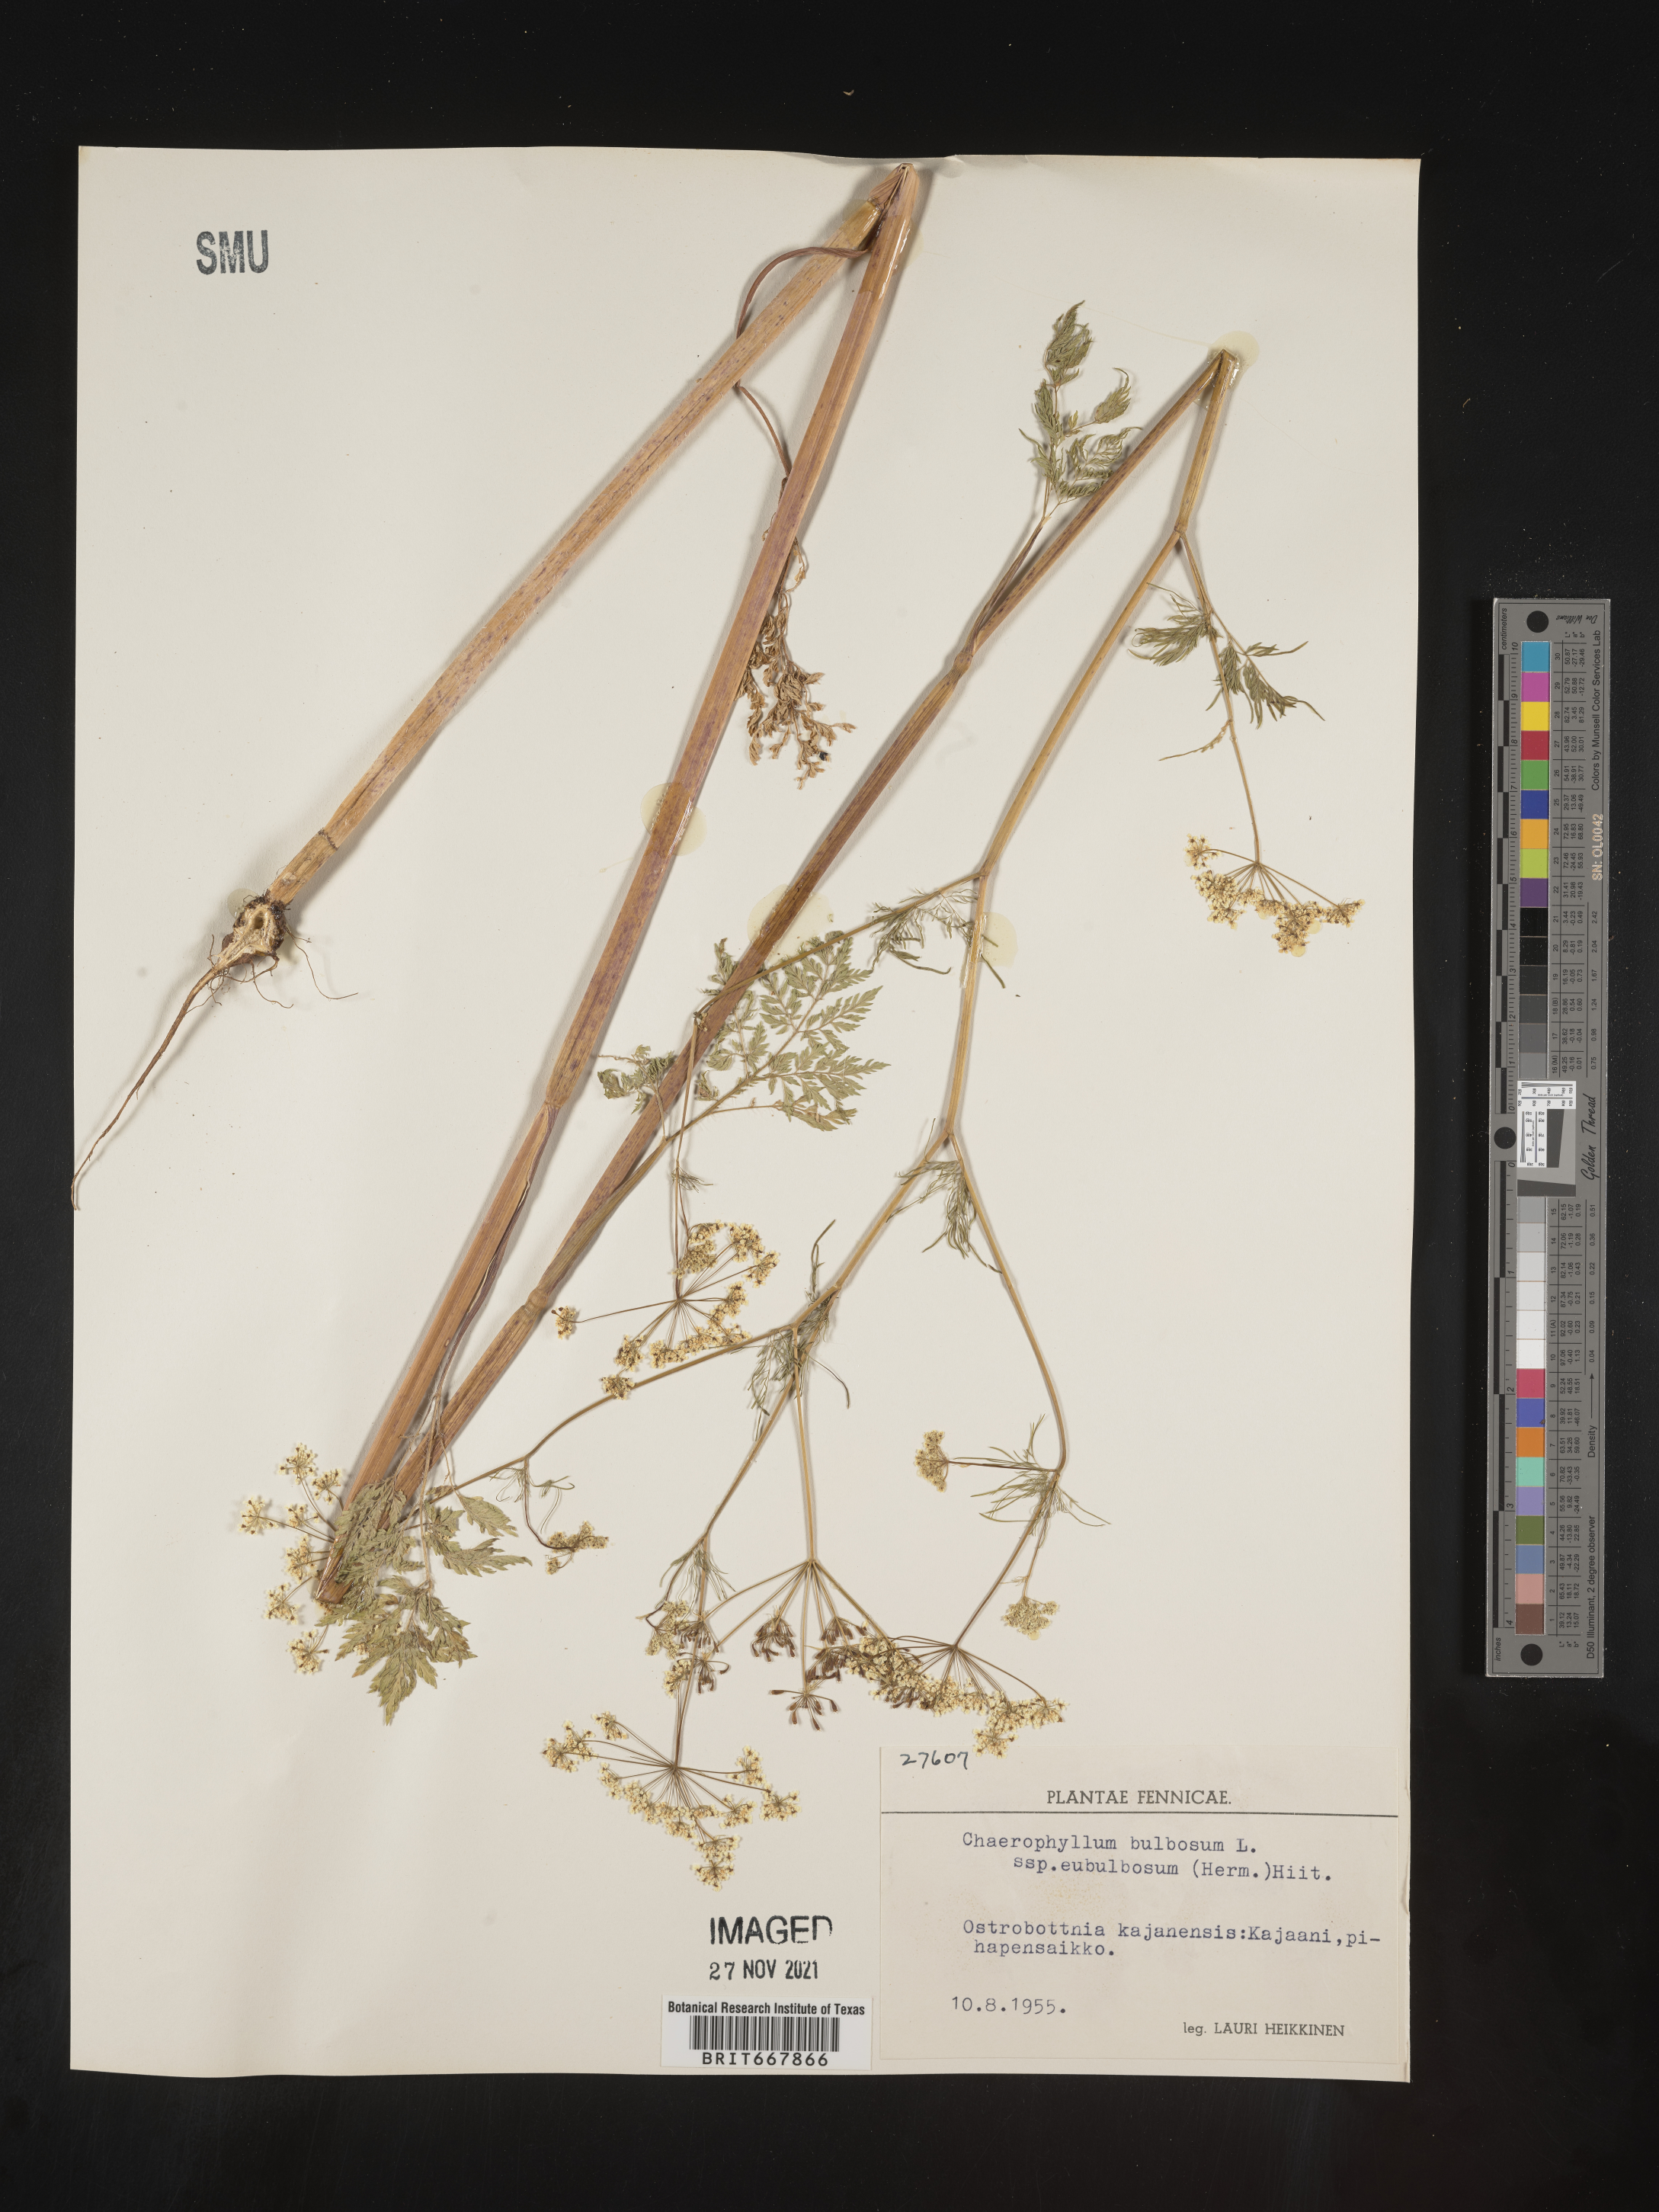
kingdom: Plantae
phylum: Tracheophyta
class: Magnoliopsida
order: Apiales
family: Apiaceae
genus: Chaerophyllum
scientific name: Chaerophyllum
